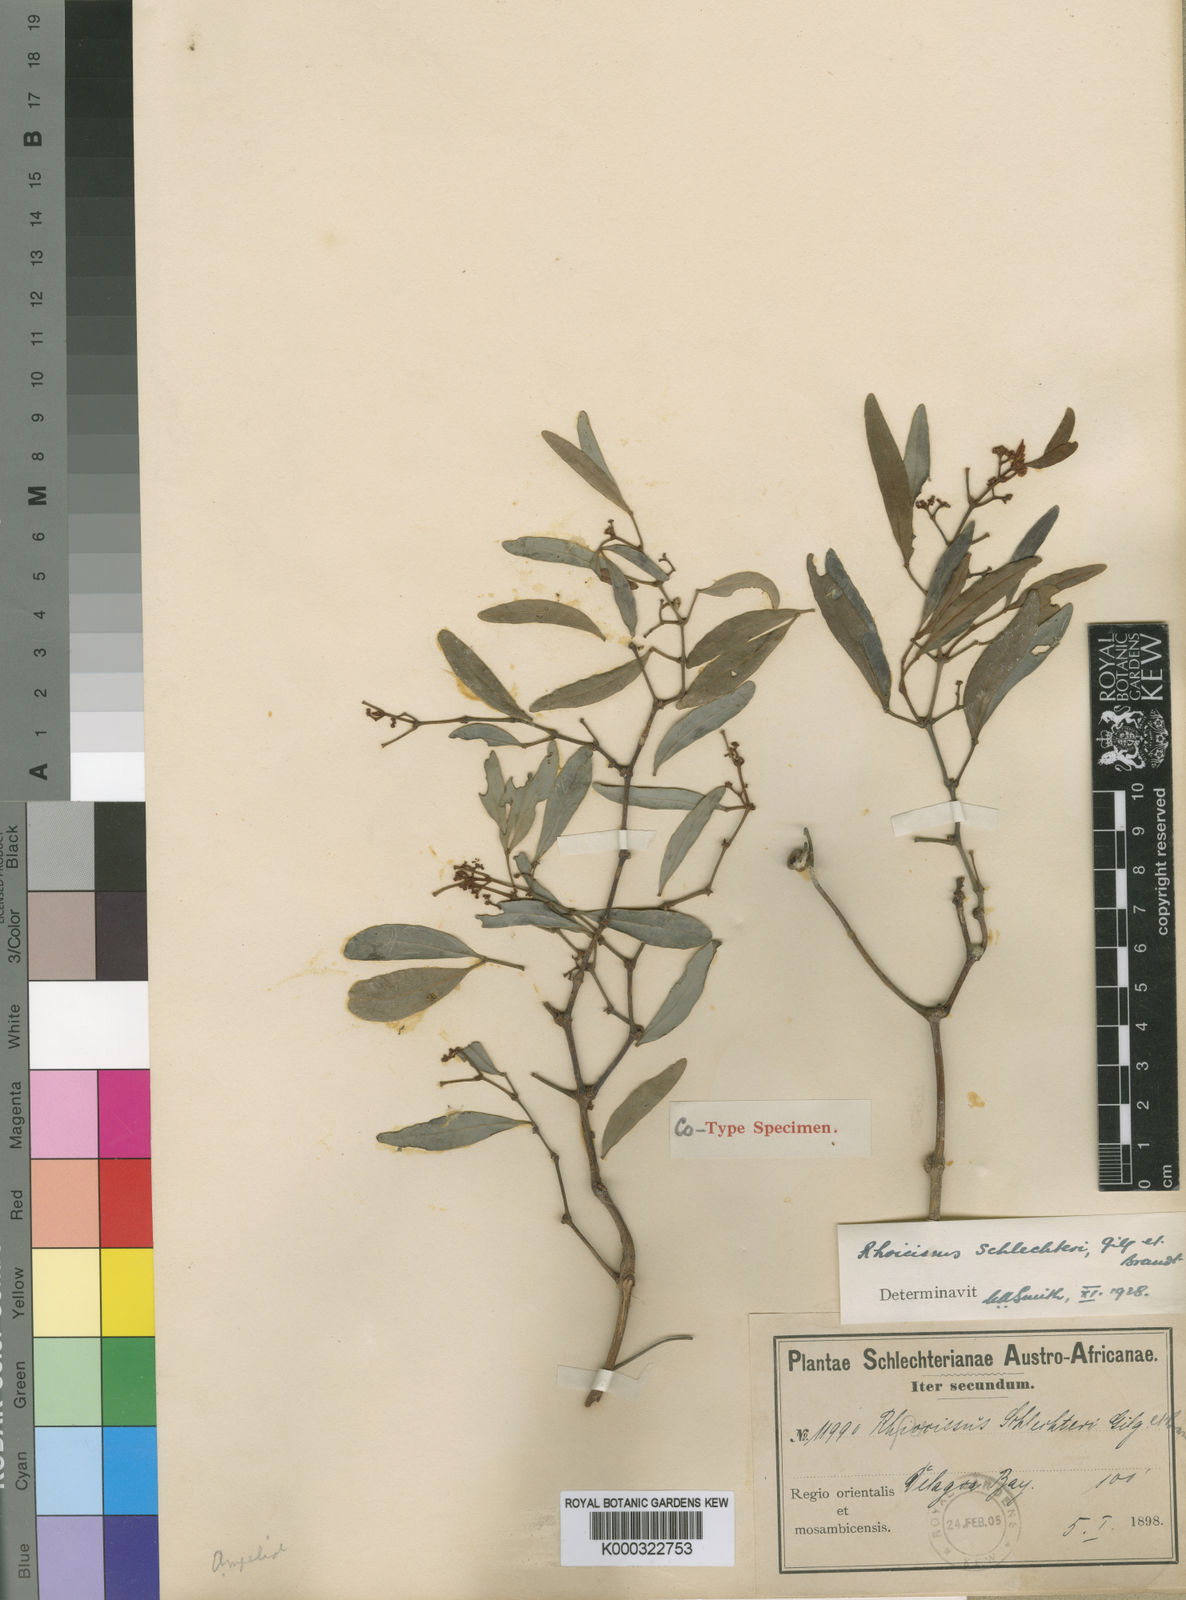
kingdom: Plantae
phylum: Tracheophyta
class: Magnoliopsida
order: Vitales
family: Vitaceae
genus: Rhoicissus
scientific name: Rhoicissus revoilii
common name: Bushveld grape
